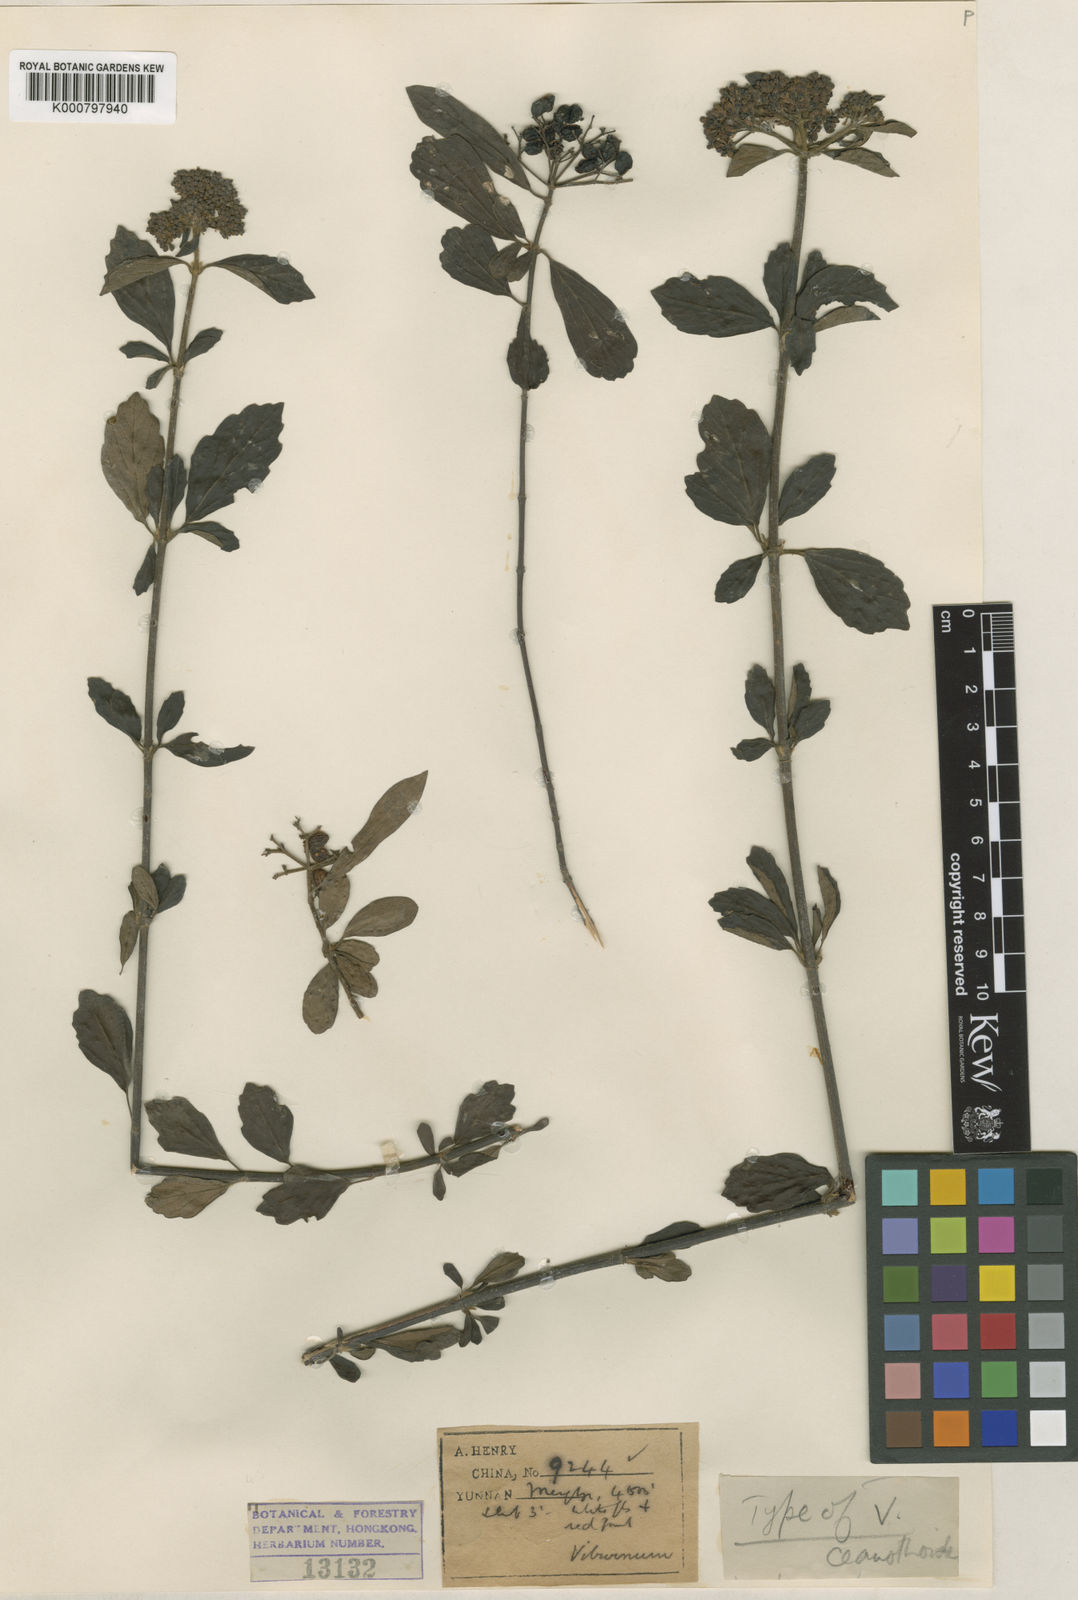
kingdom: Plantae
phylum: Tracheophyta
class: Magnoliopsida
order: Dipsacales
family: Viburnaceae
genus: Viburnum
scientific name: Viburnum foetidum
